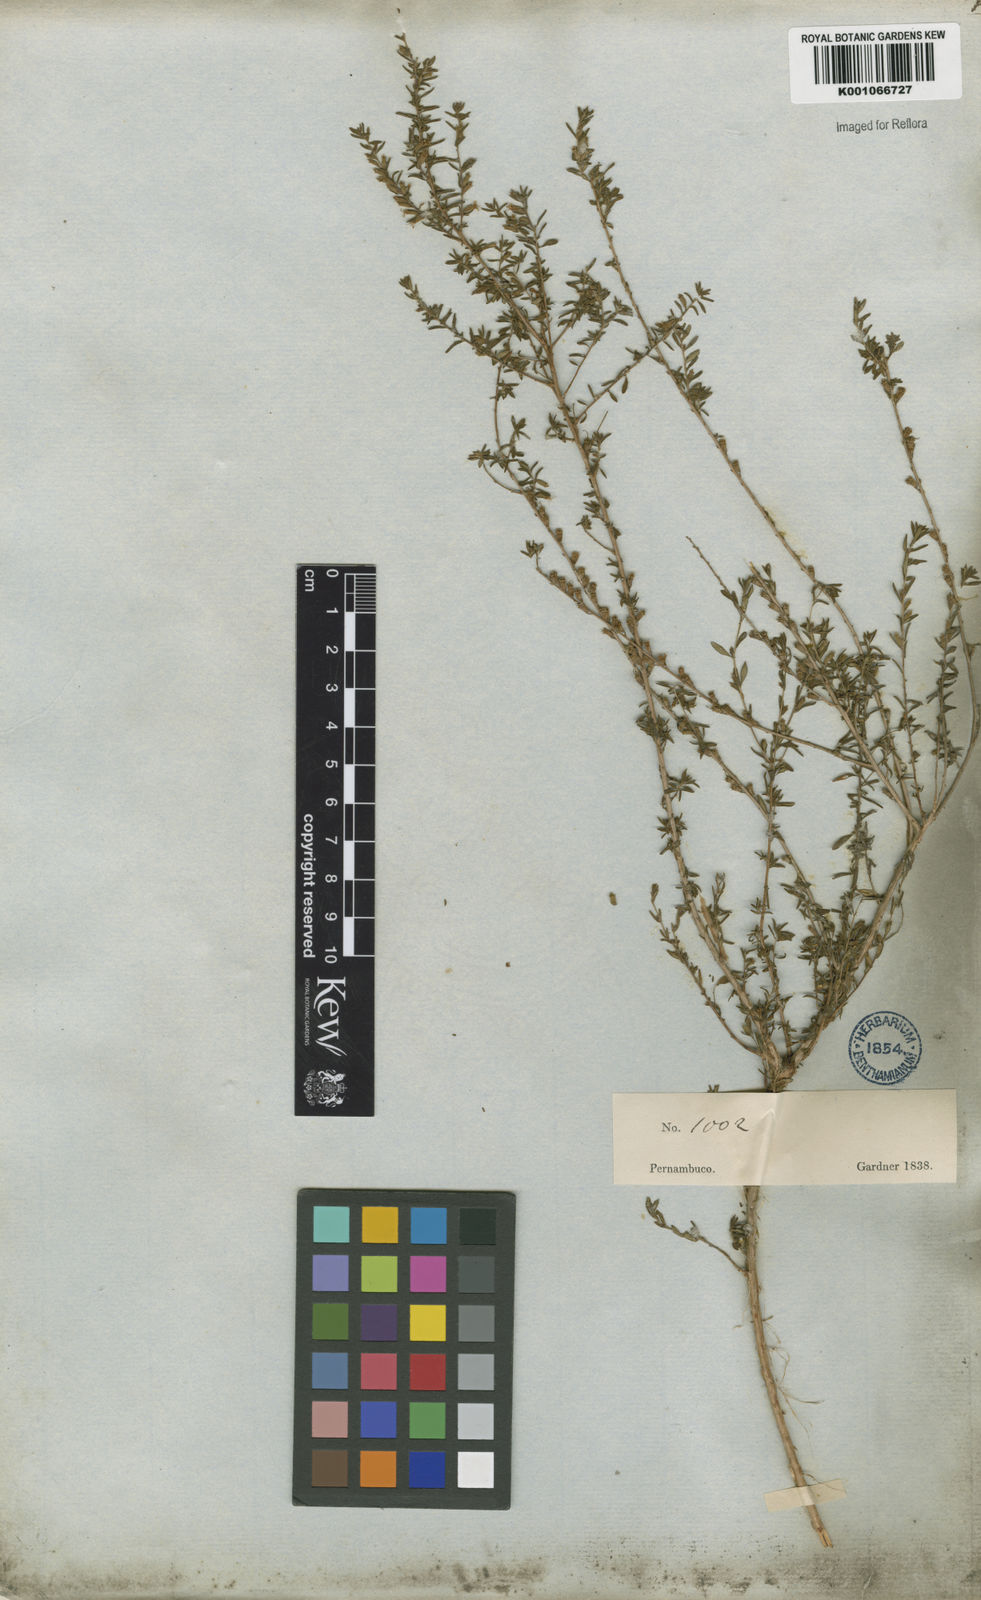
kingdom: Plantae
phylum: Tracheophyta
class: Magnoliopsida
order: Myrtales
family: Lythraceae
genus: Pleurophora
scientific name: Pleurophora anomala
